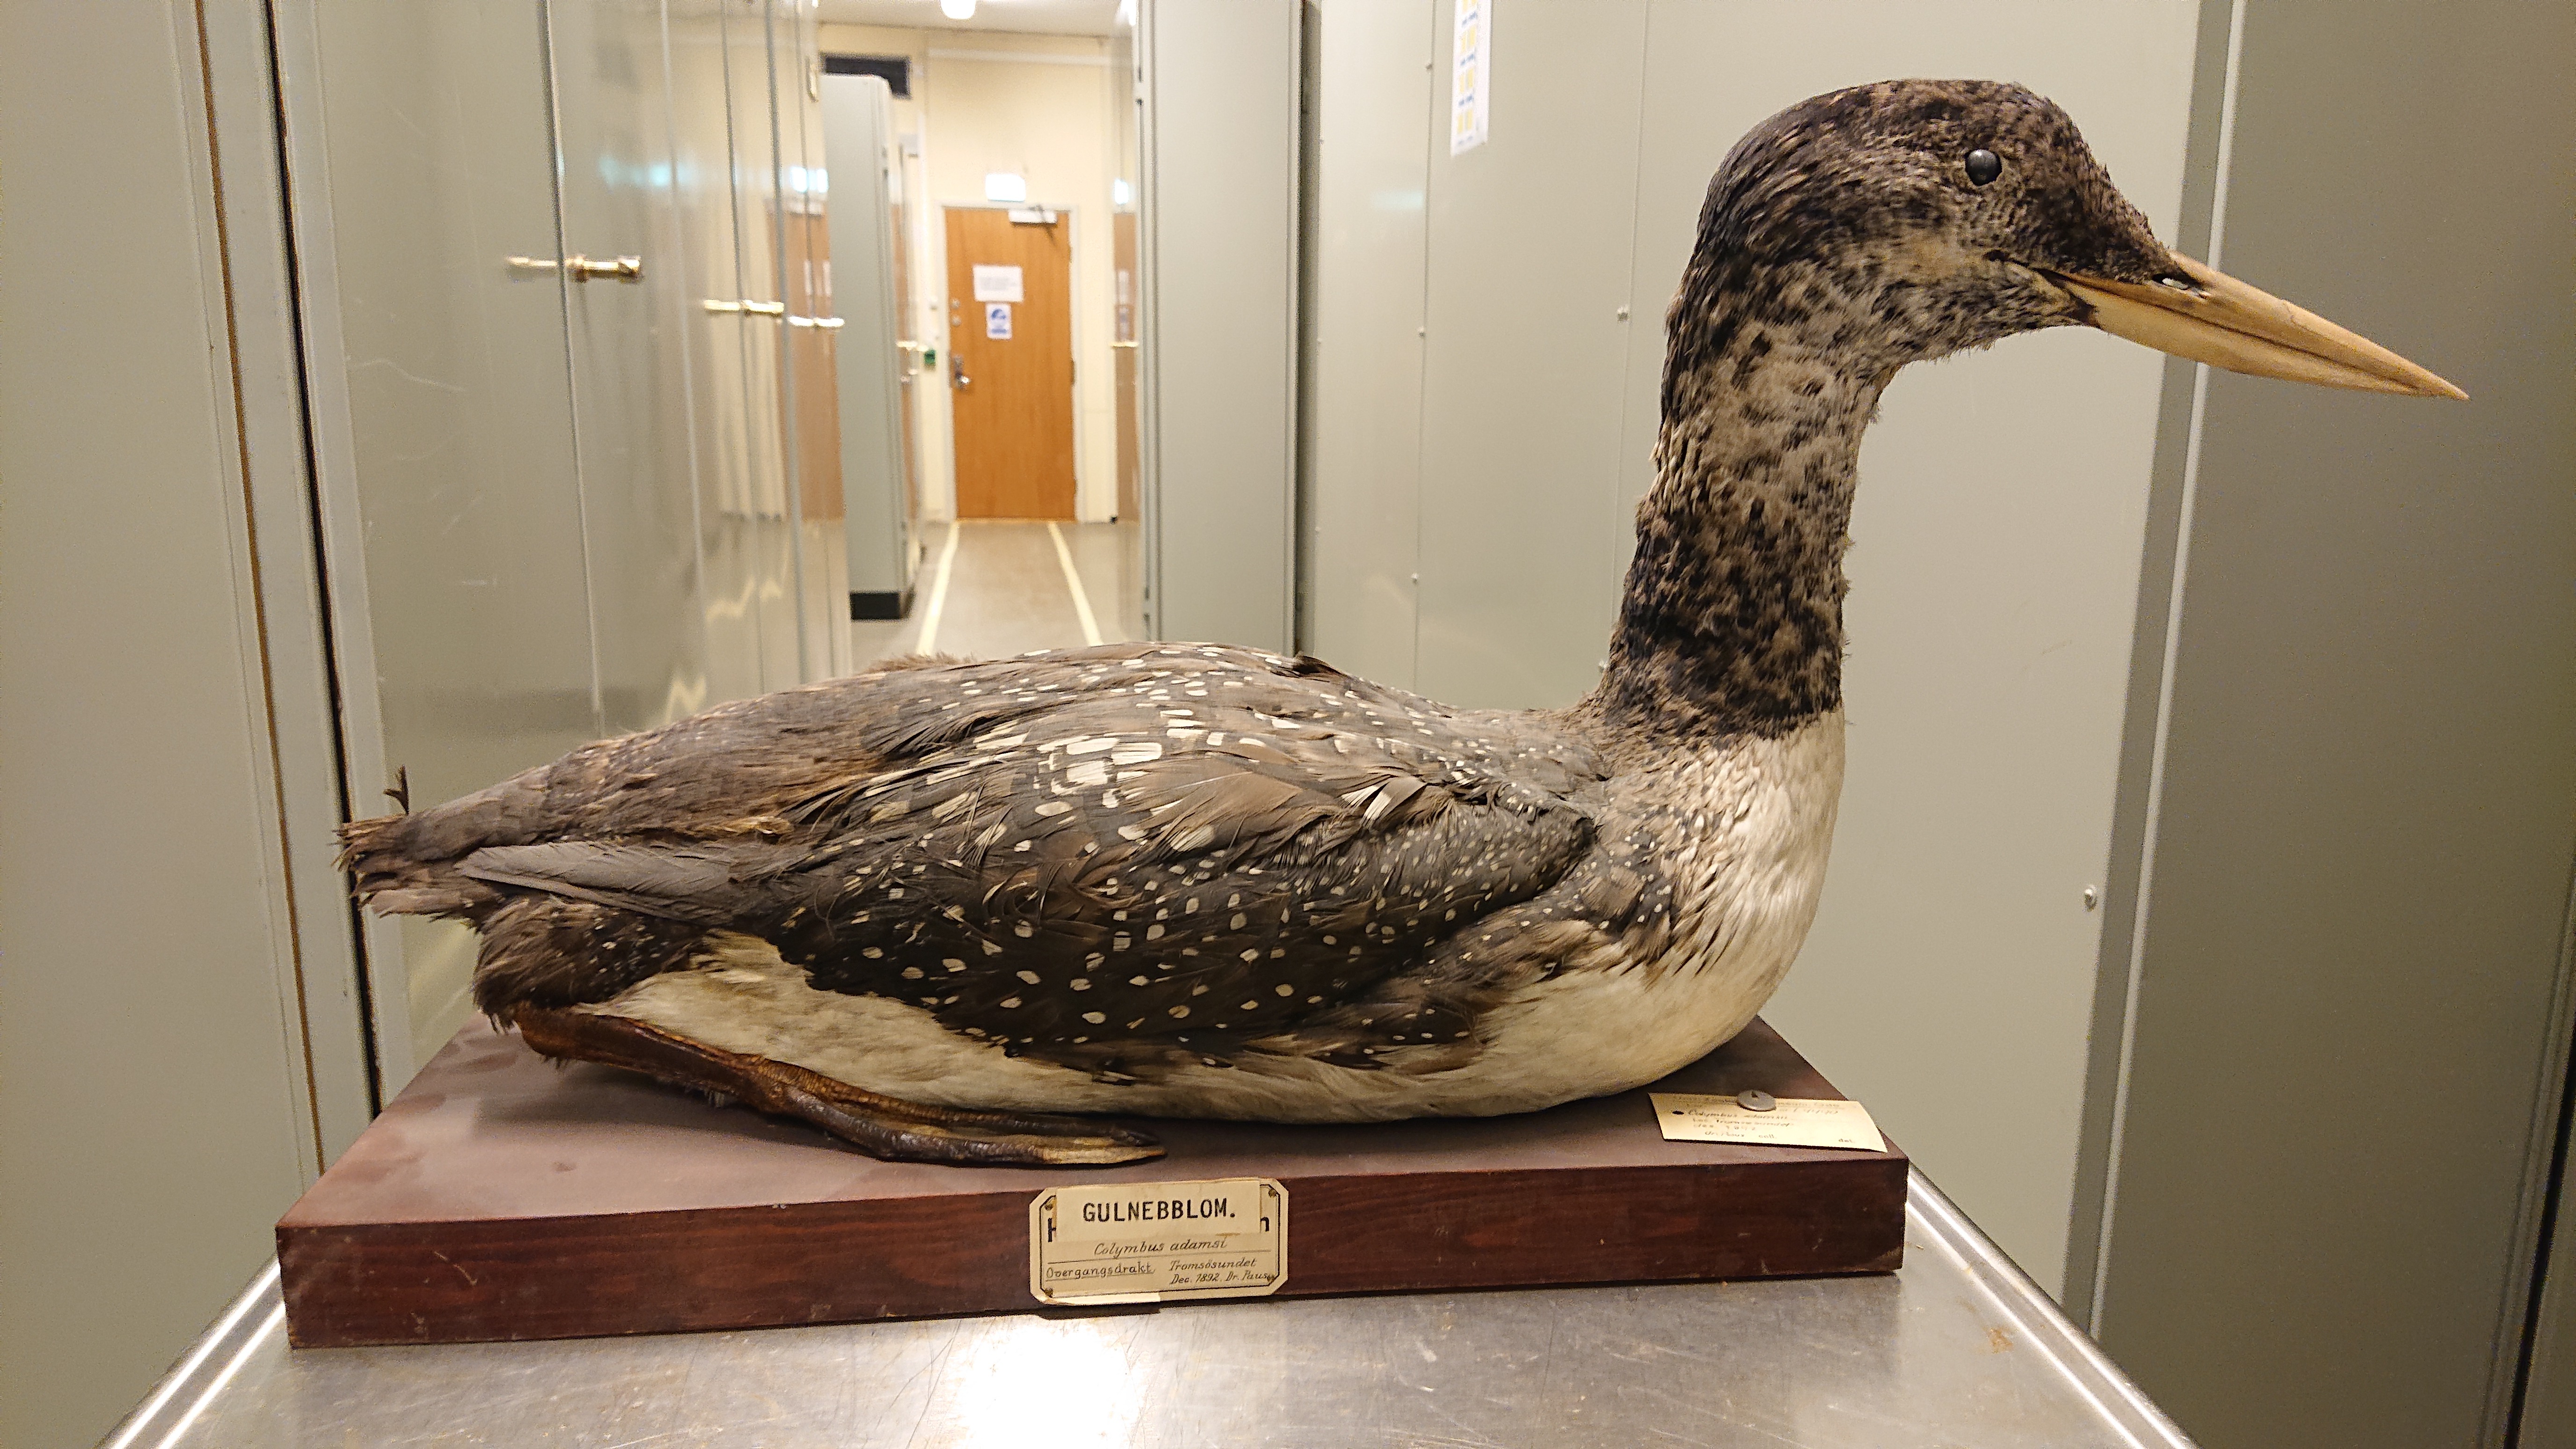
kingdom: Animalia
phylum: Chordata
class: Aves
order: Gaviiformes
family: Gaviidae
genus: Gavia
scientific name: Gavia adamsii
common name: Yellow-billed loon
